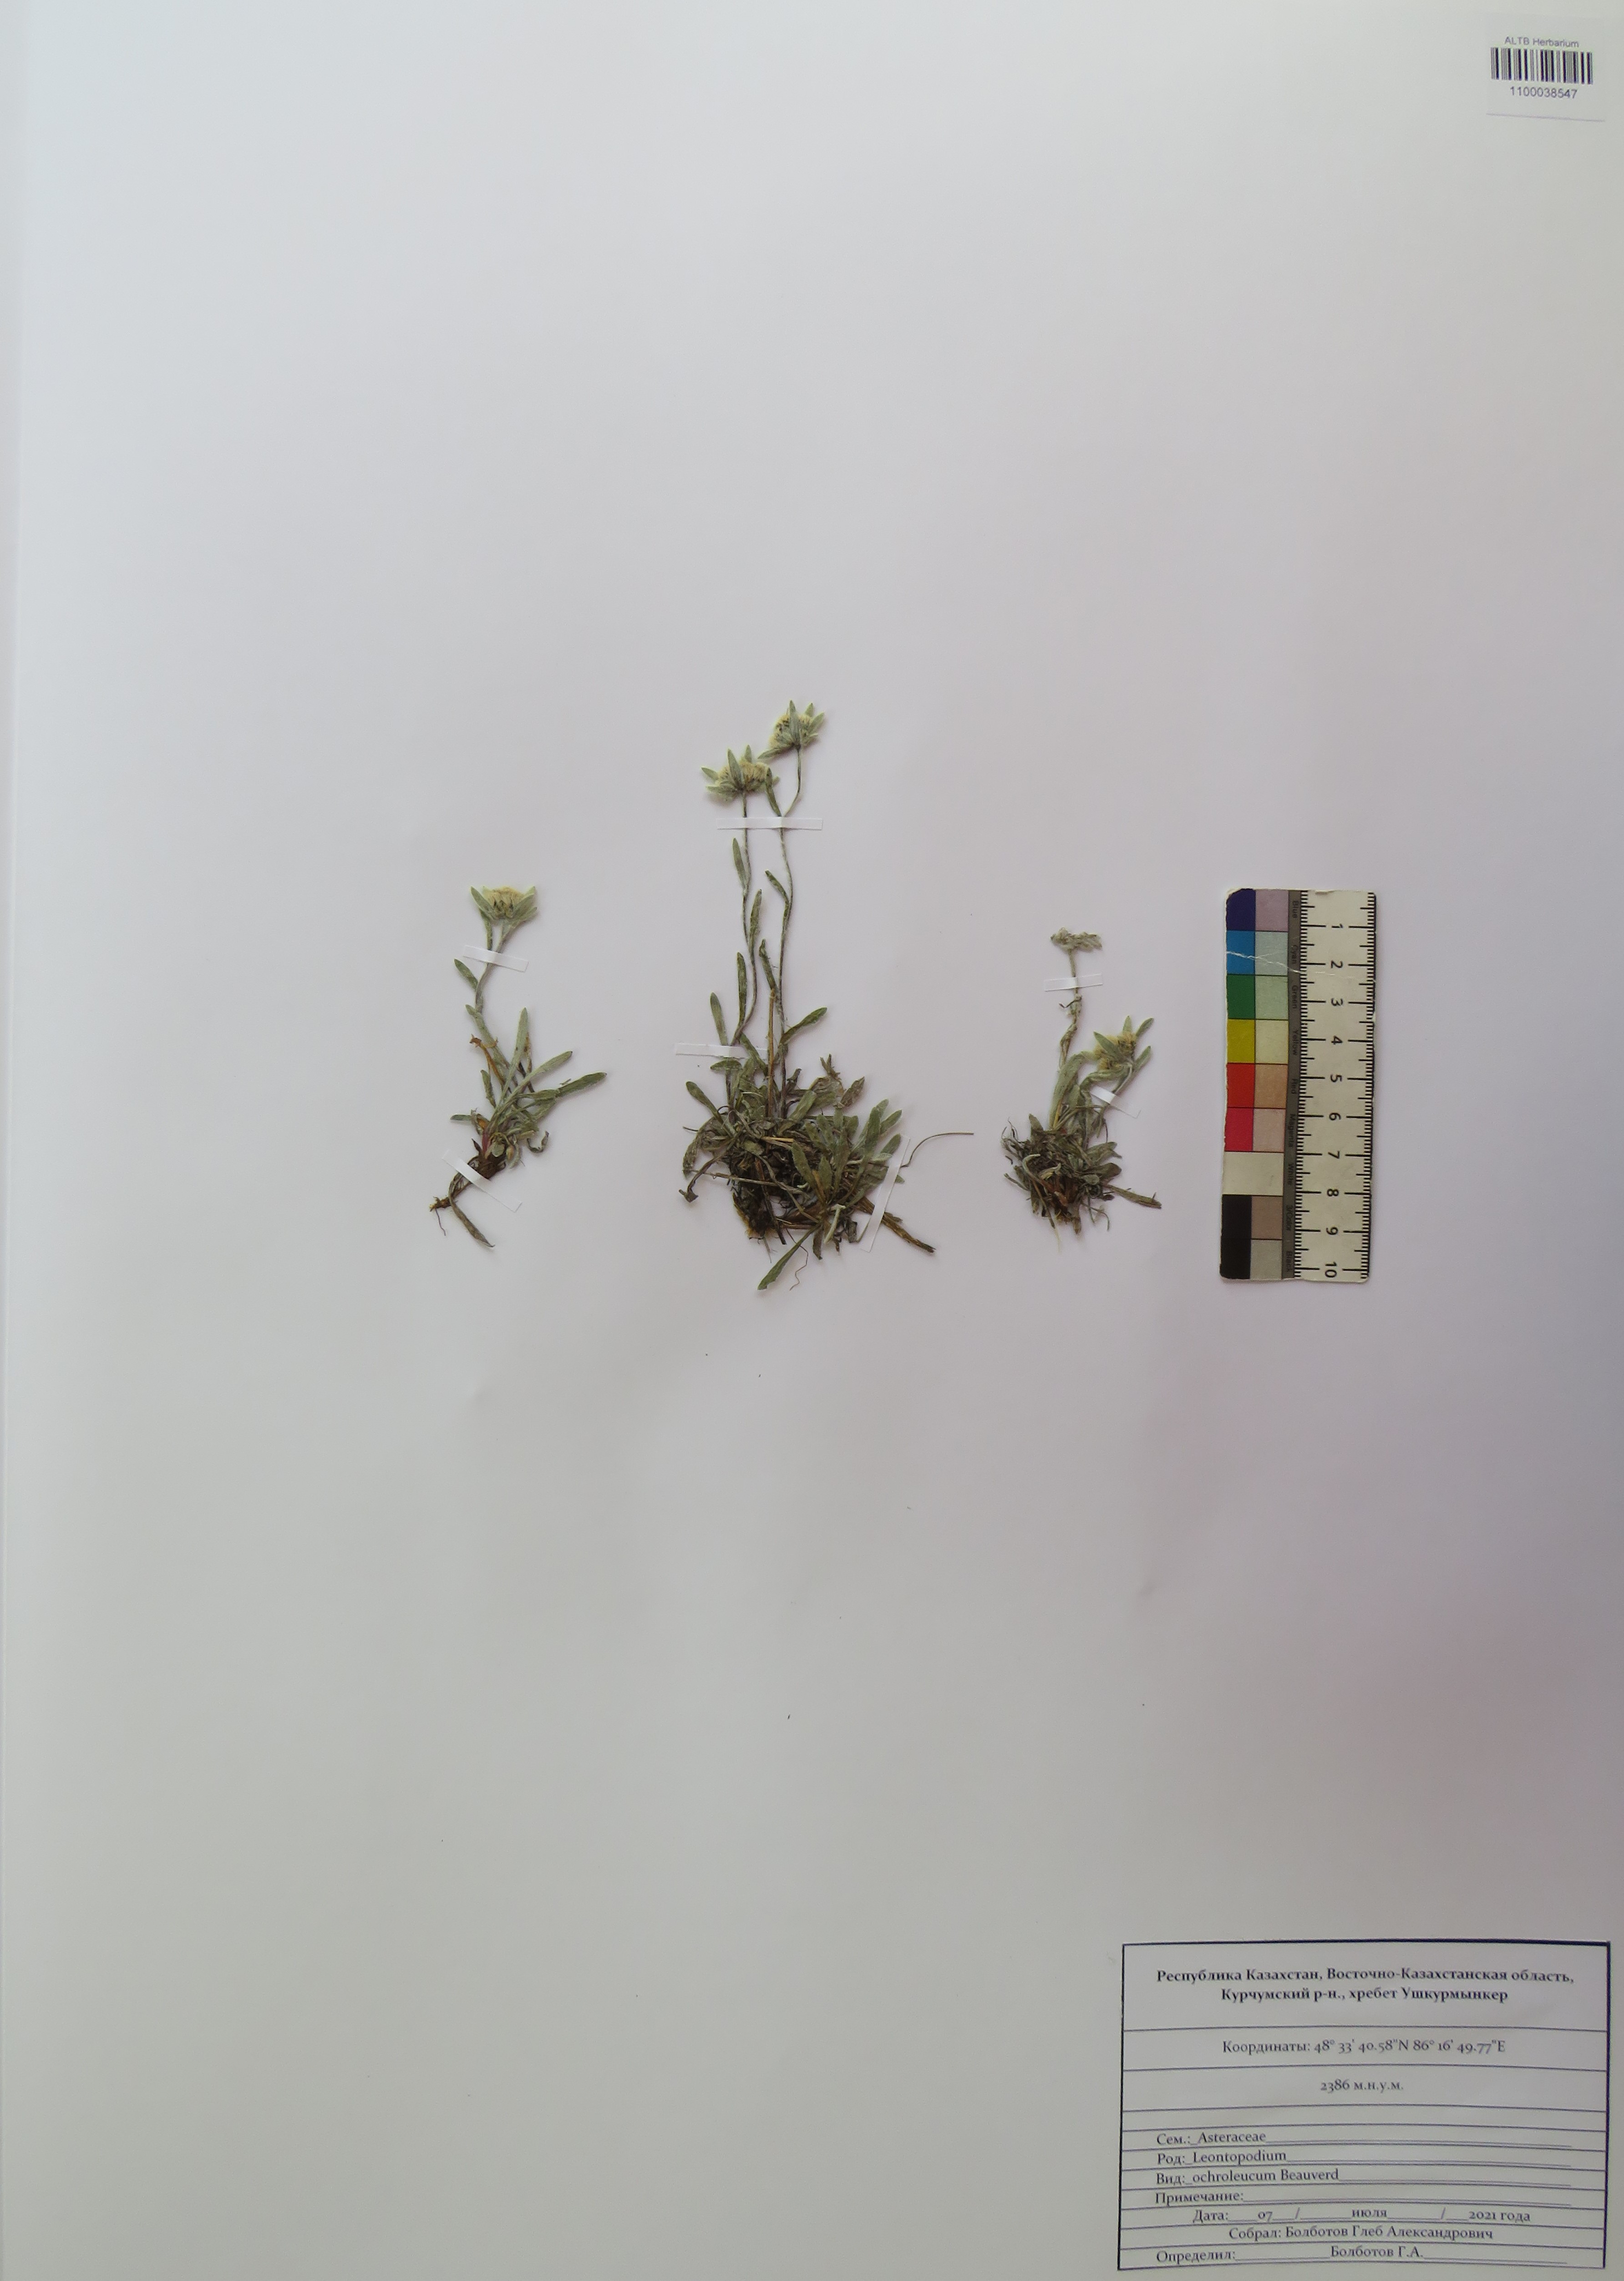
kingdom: Plantae
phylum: Tracheophyta
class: Magnoliopsida
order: Asterales
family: Asteraceae
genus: Leontopodium
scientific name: Leontopodium leontopodinum
